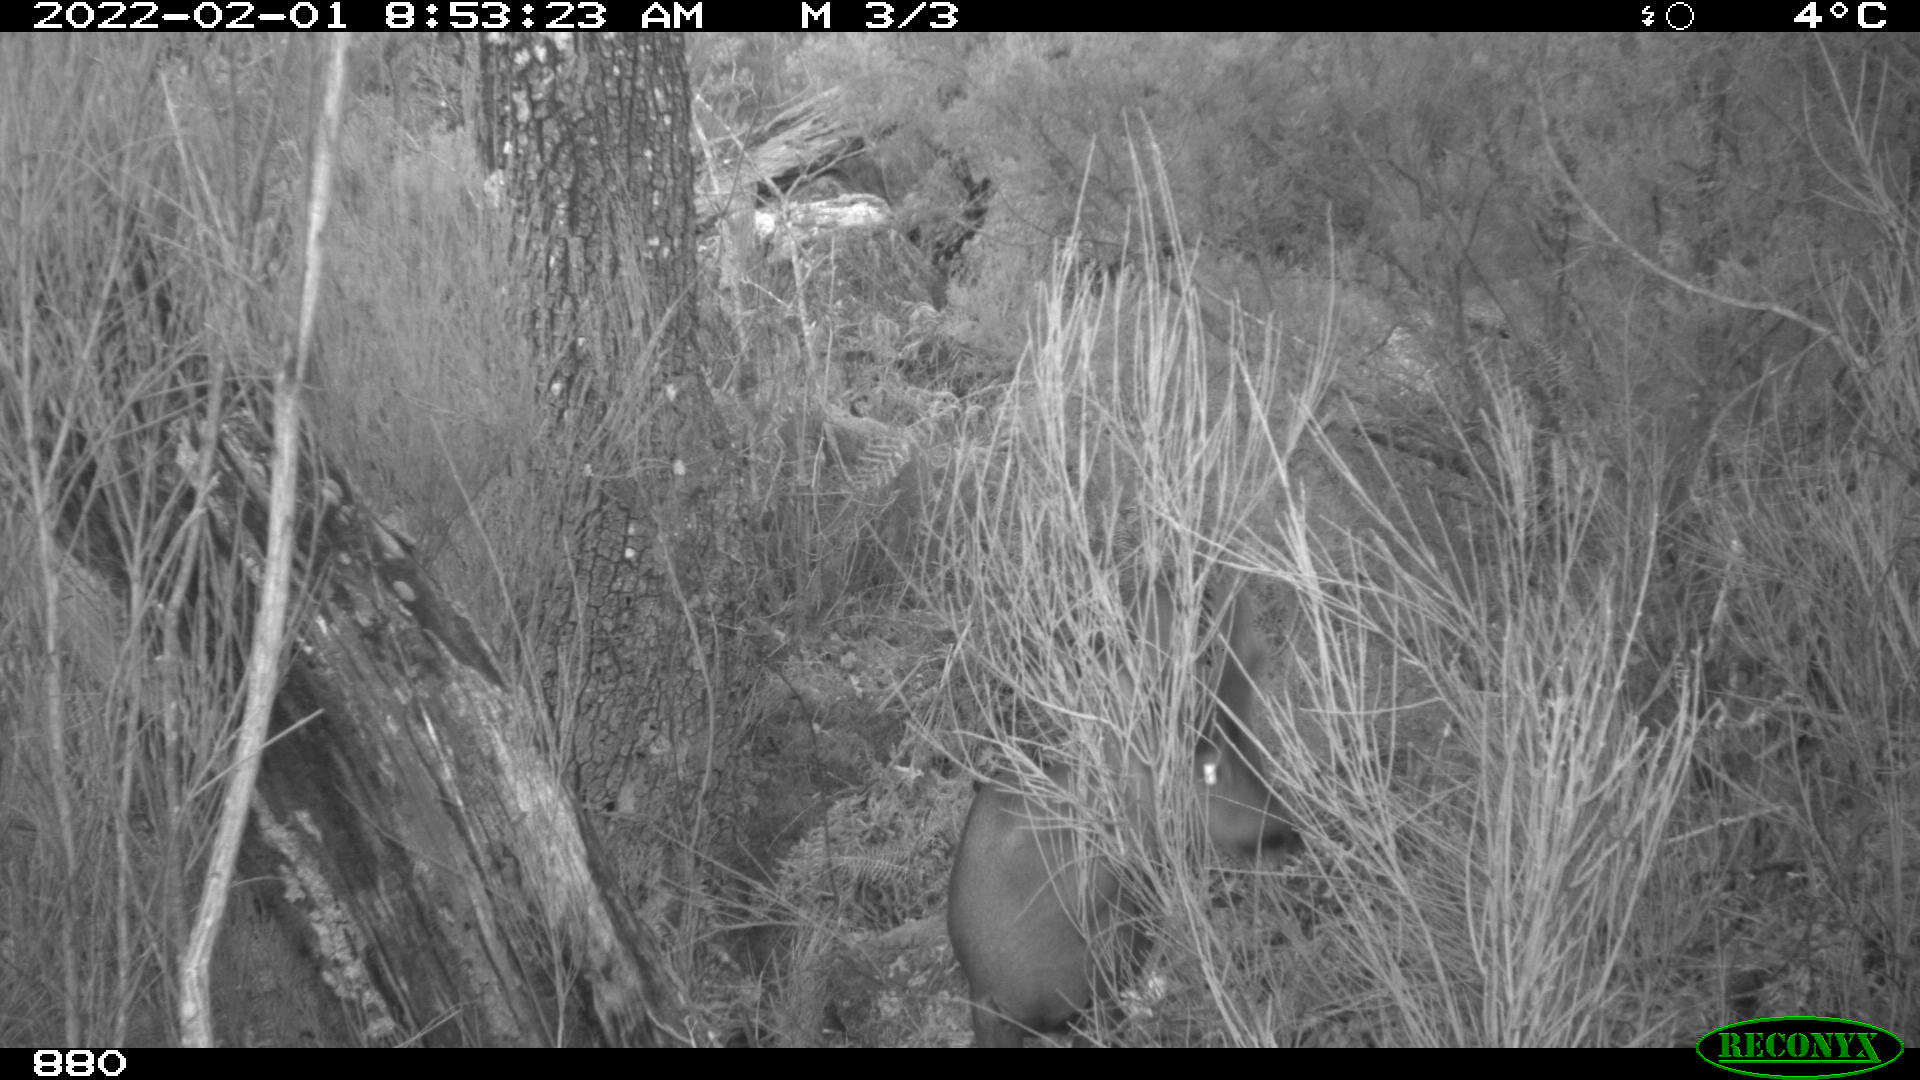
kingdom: Animalia
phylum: Chordata
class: Mammalia
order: Artiodactyla
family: Cervidae
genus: Capreolus
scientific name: Capreolus capreolus
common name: Western roe deer
